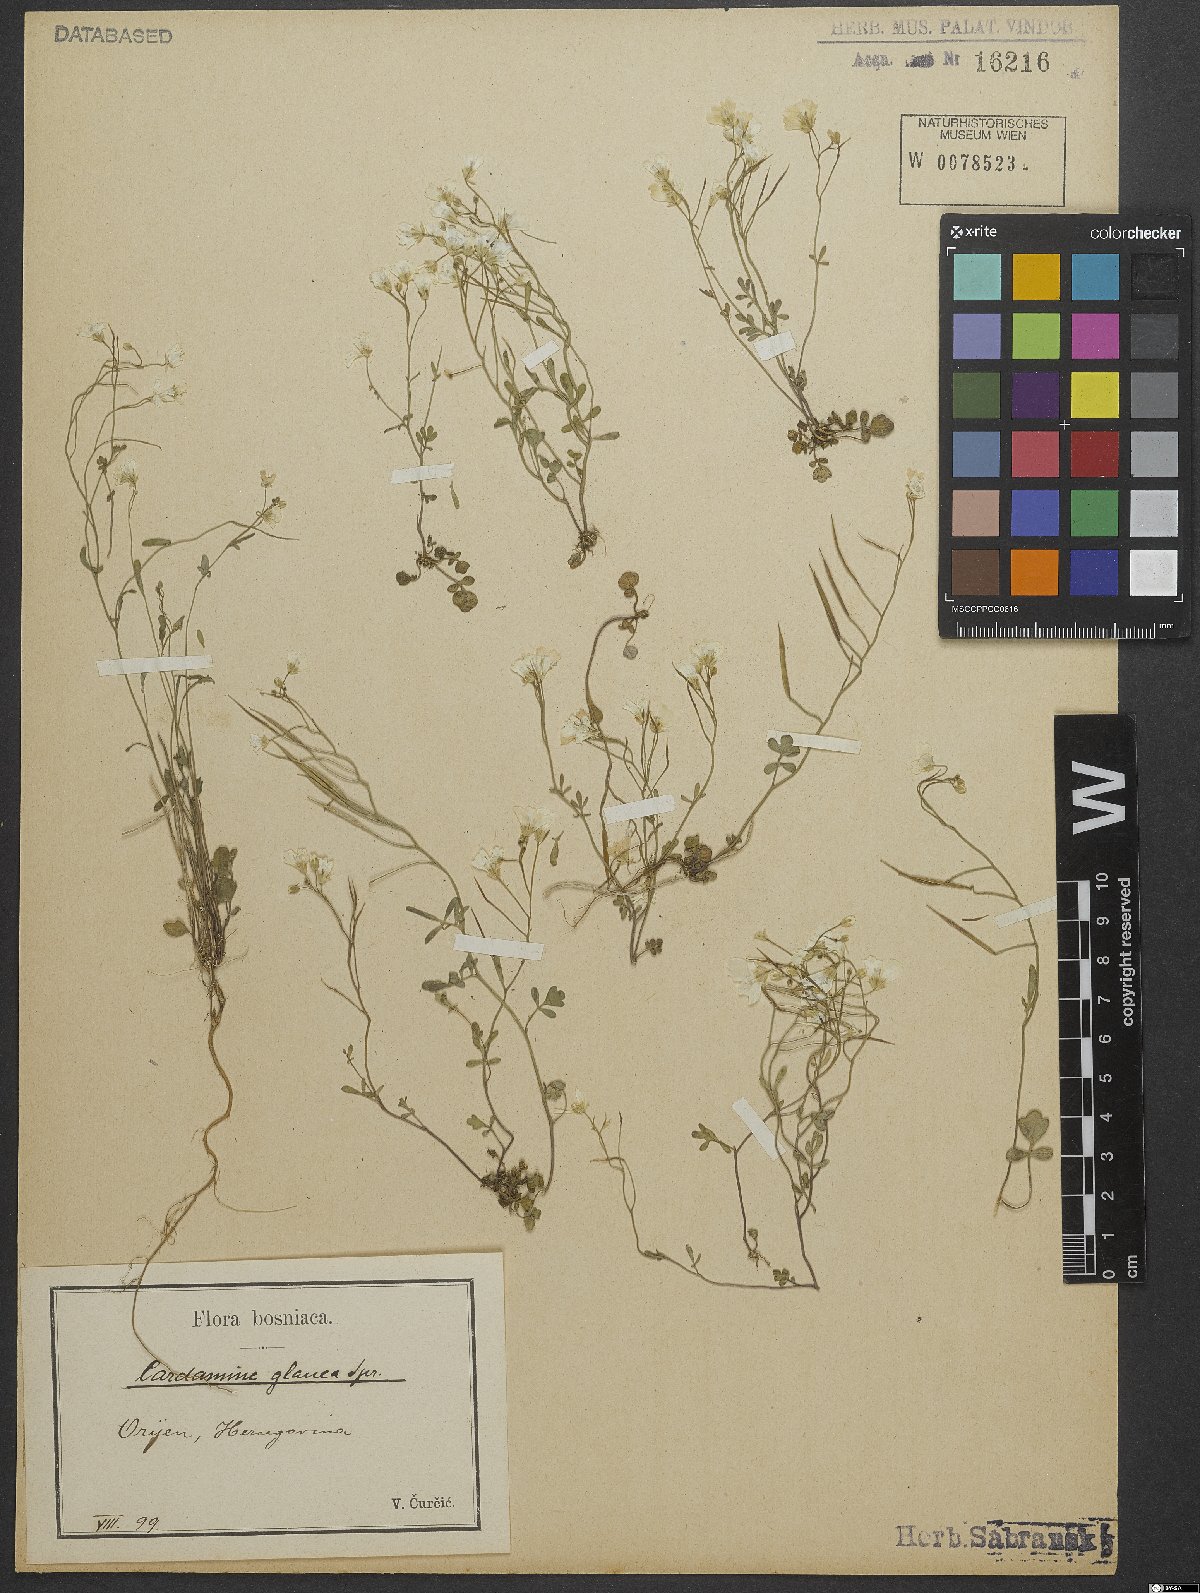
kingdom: Plantae
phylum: Tracheophyta
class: Magnoliopsida
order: Brassicales
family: Brassicaceae
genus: Cardamine
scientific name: Cardamine glauca
